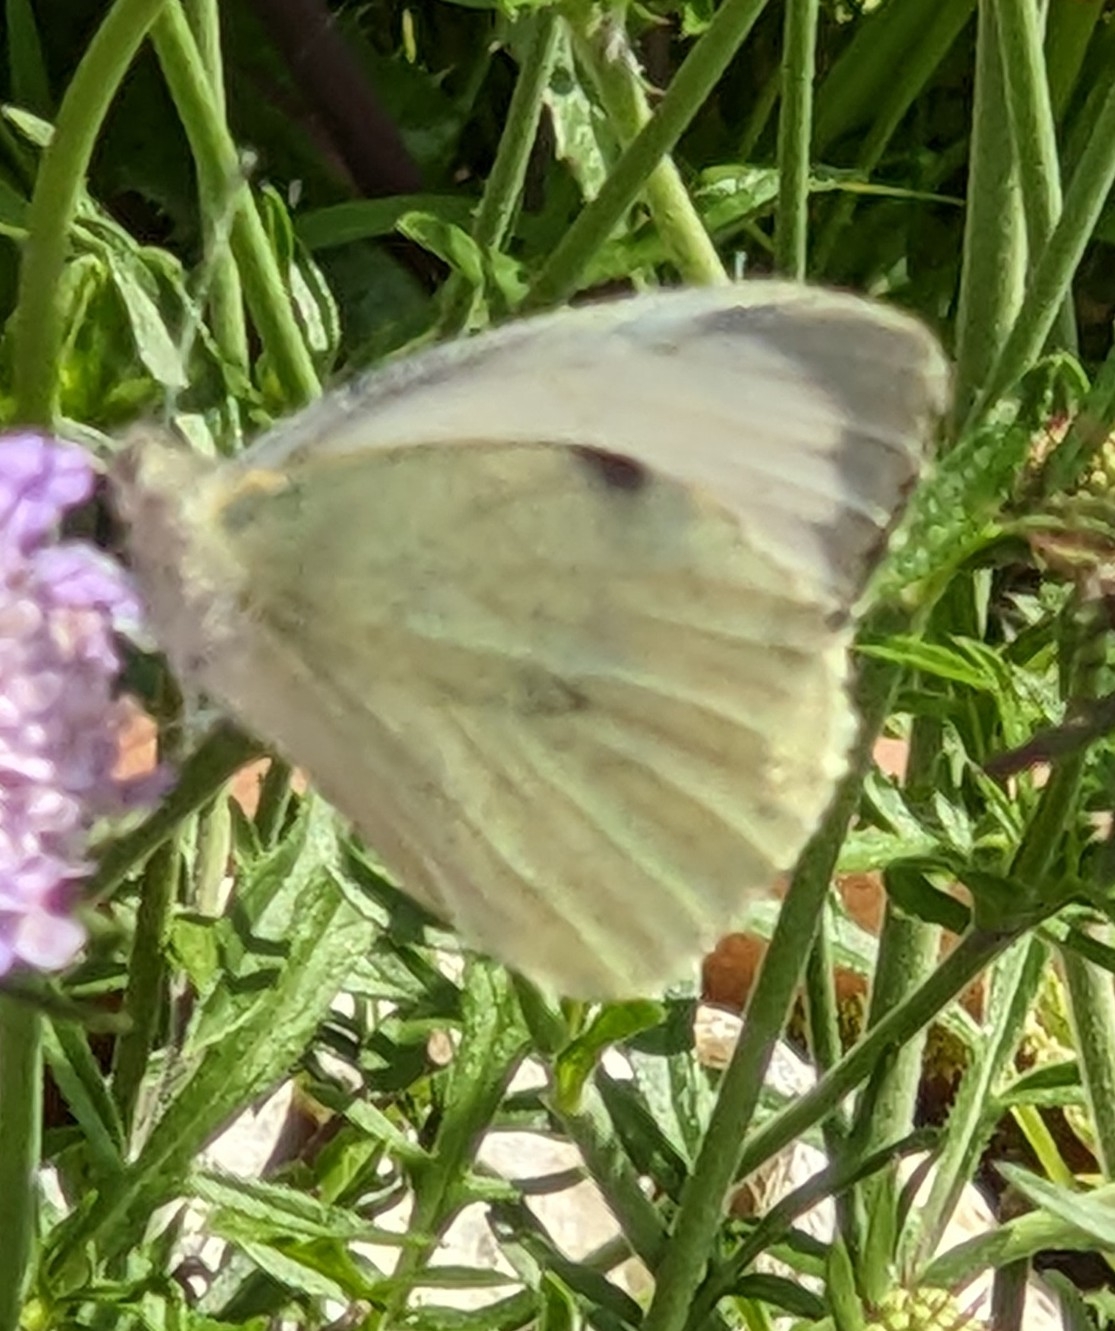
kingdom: Animalia
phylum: Arthropoda
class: Insecta
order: Lepidoptera
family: Pieridae
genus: Pieris
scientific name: Pieris brassicae
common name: Stor kålsommerfugl
